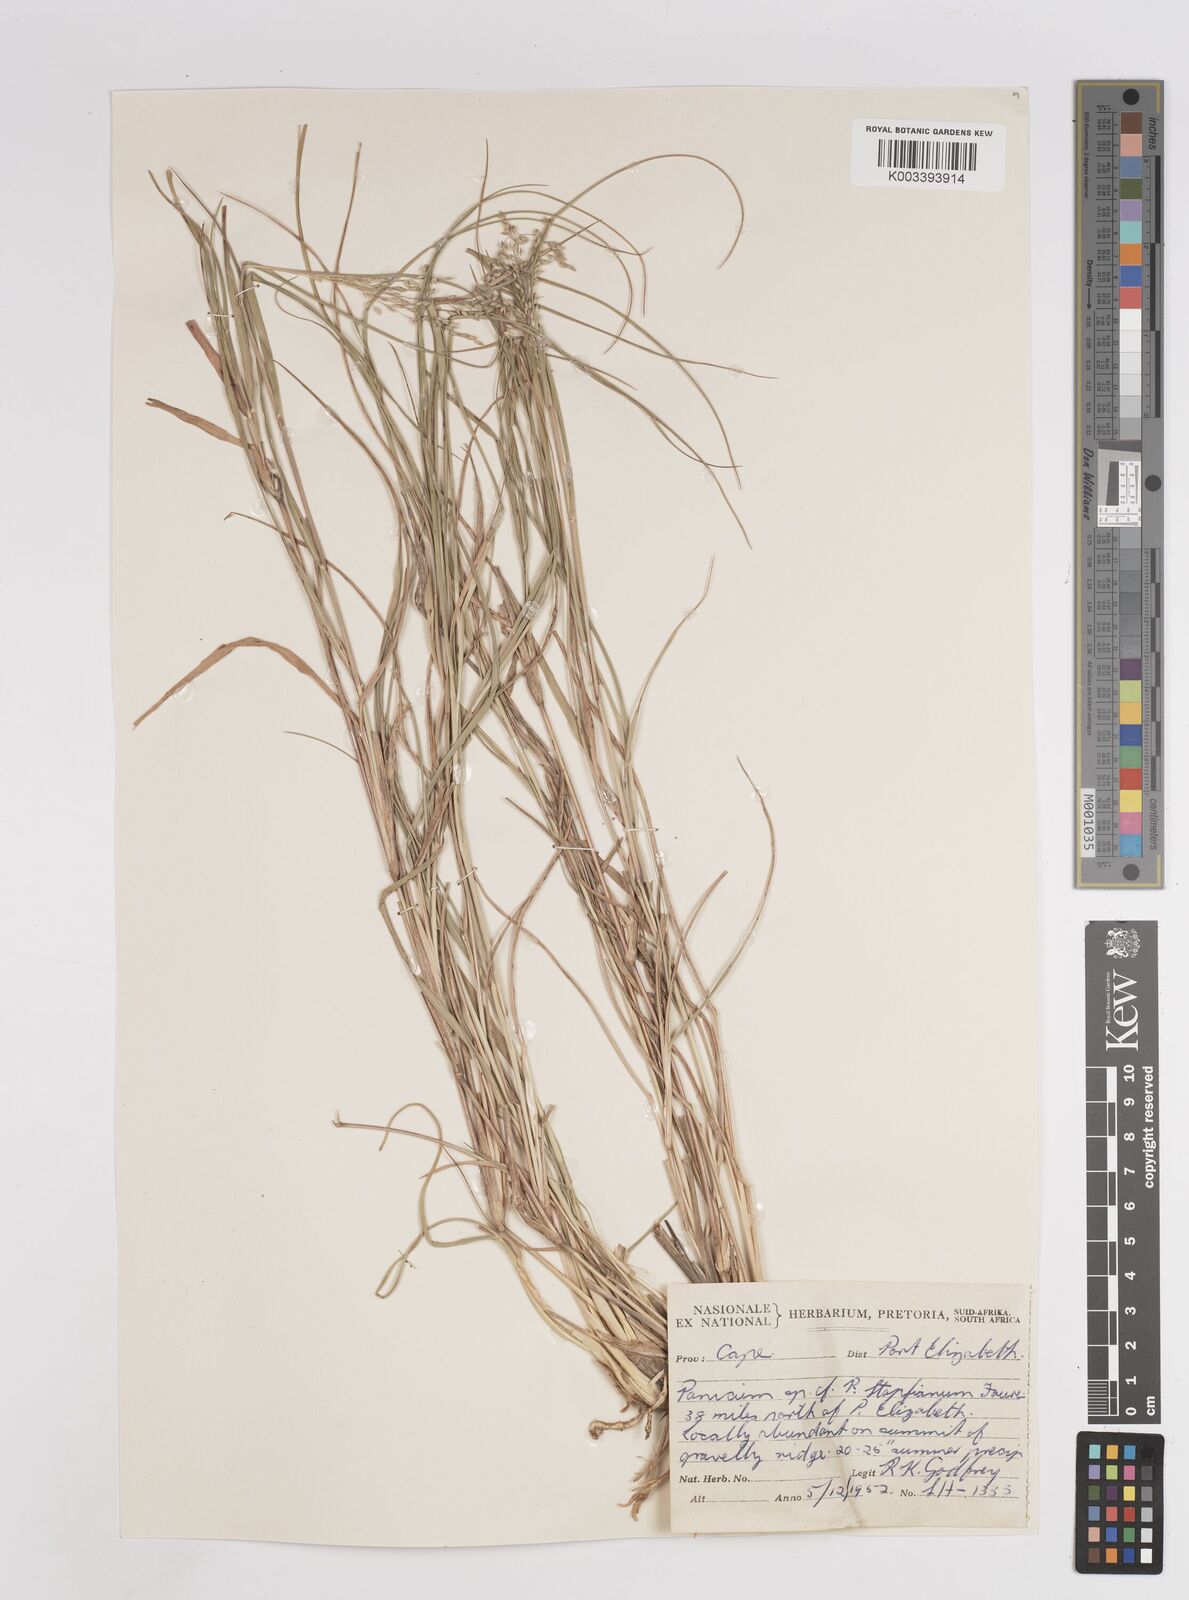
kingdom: Plantae
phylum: Tracheophyta
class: Liliopsida
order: Poales
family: Poaceae
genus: Panicum
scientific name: Panicum stapfianum
